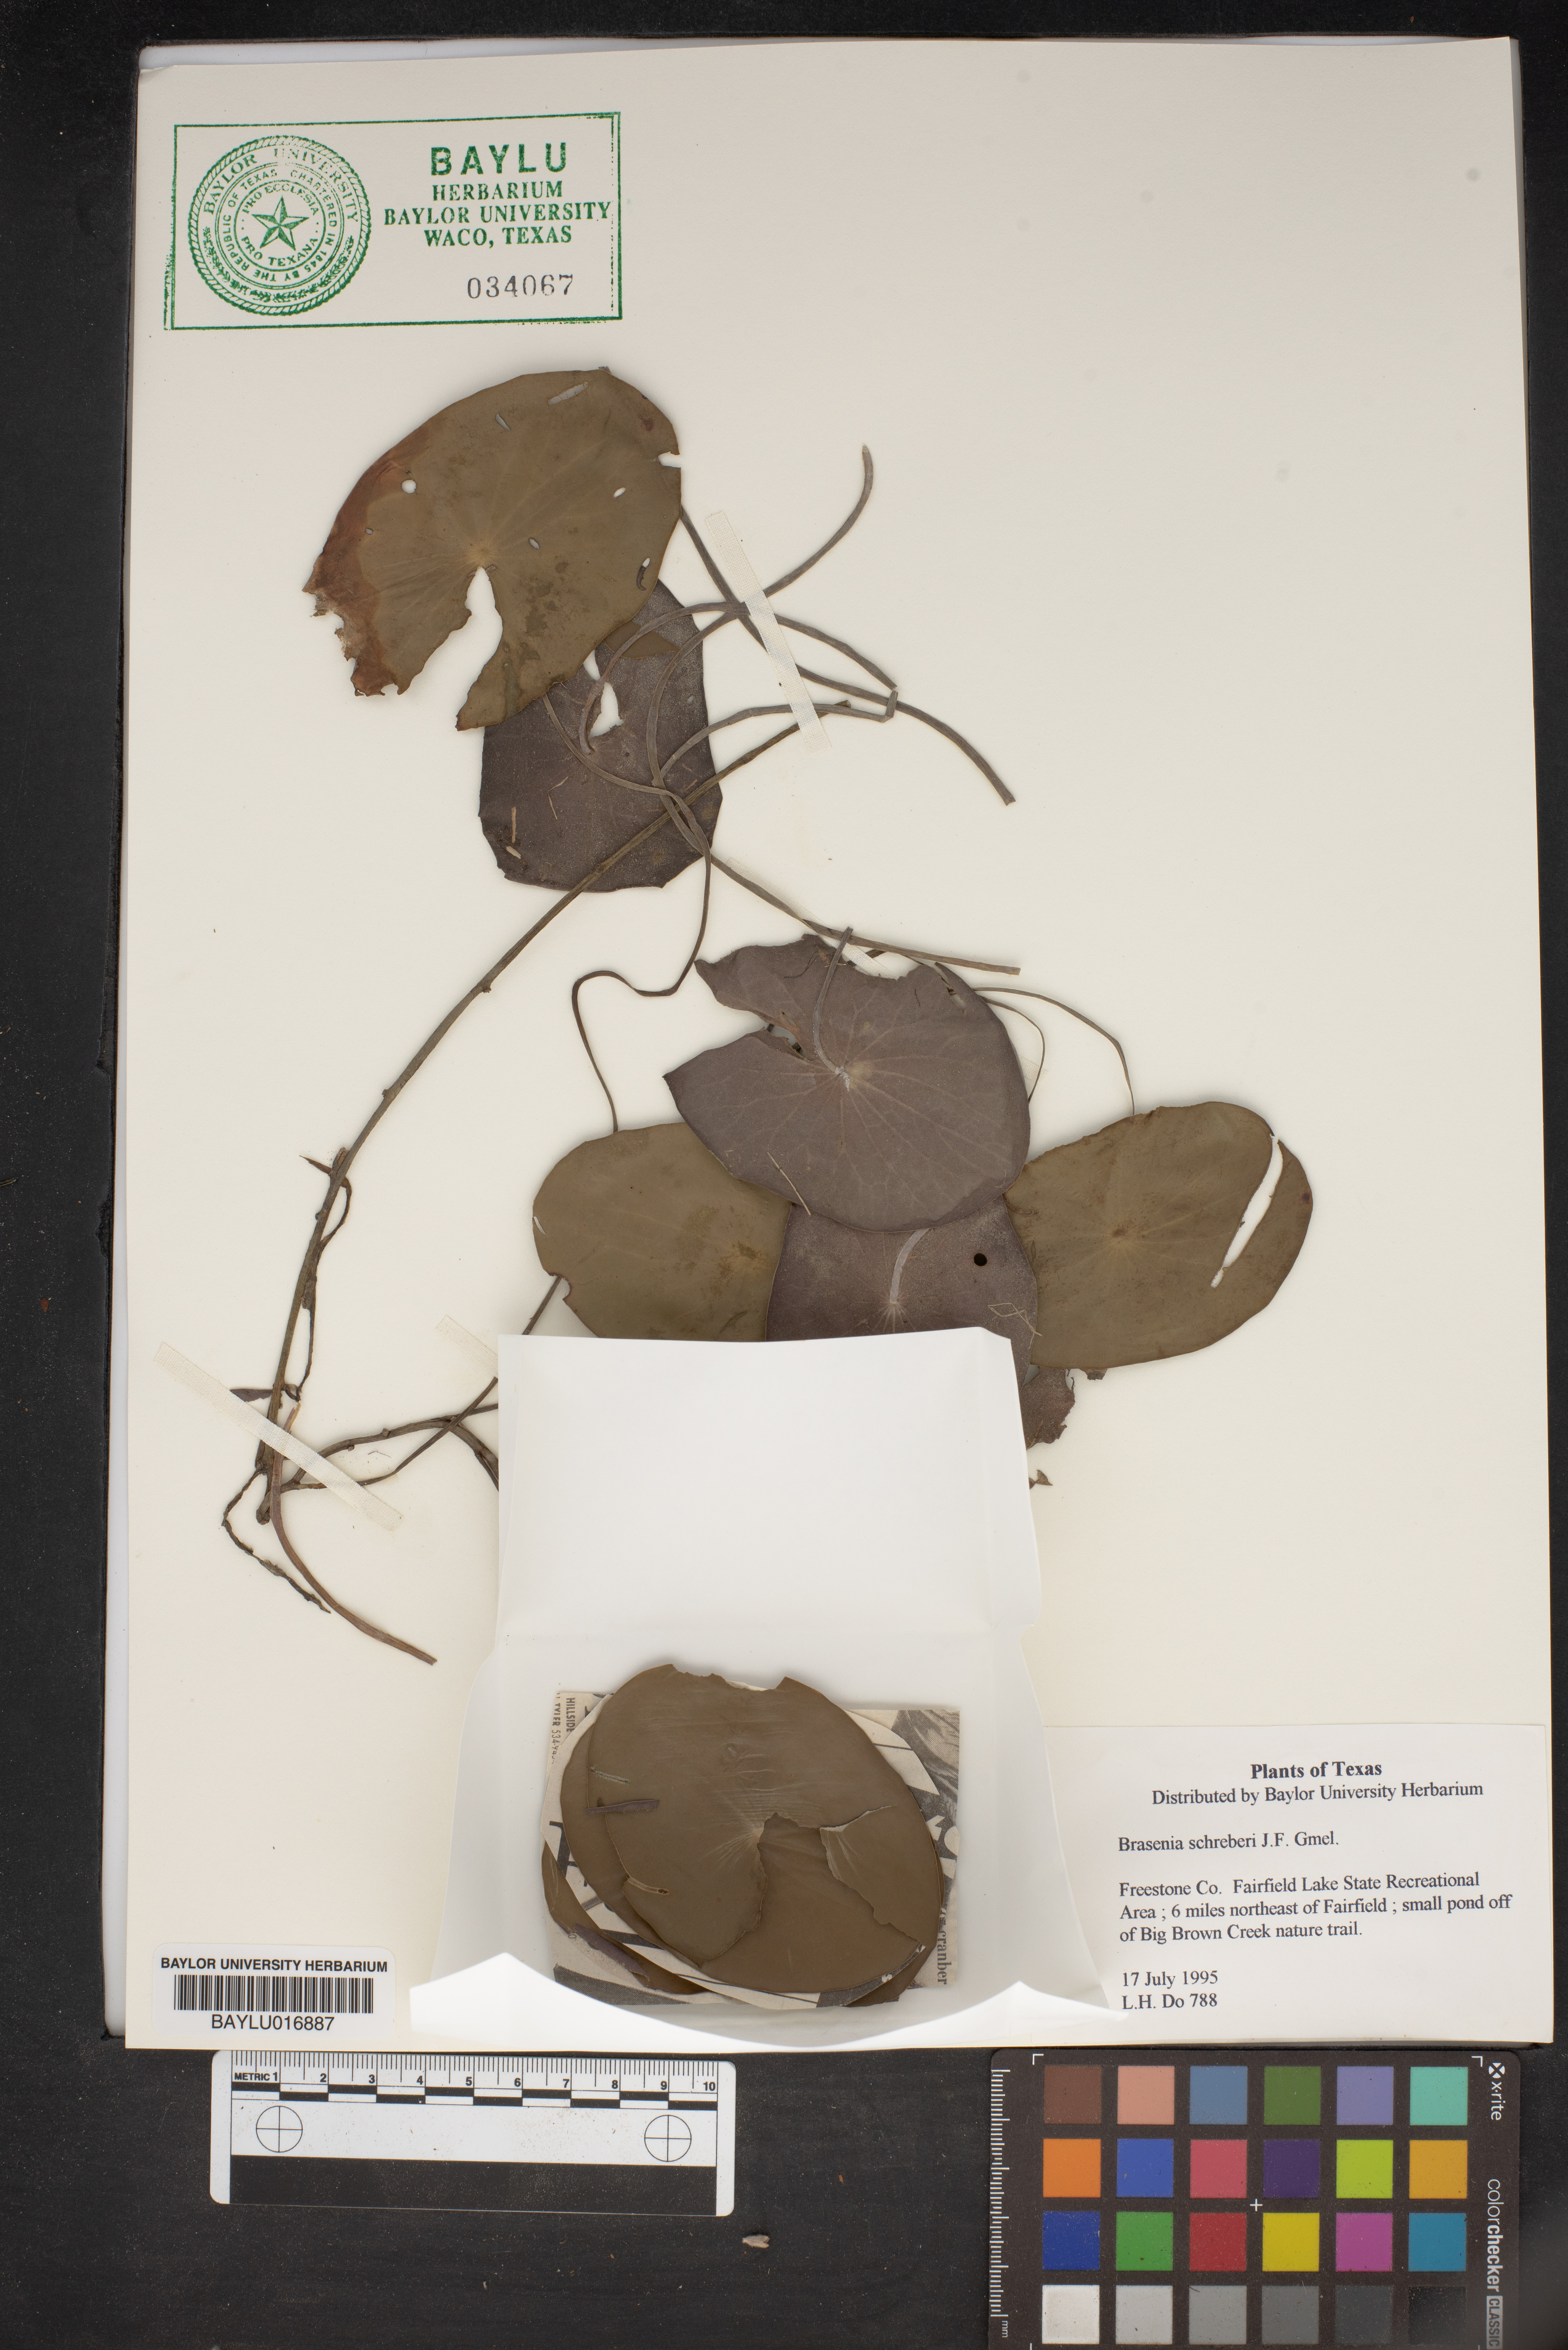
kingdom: Plantae
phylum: Tracheophyta
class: Magnoliopsida
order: Nymphaeales
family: Cabombaceae
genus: Brasenia
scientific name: Brasenia schreberi
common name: Water-shield
